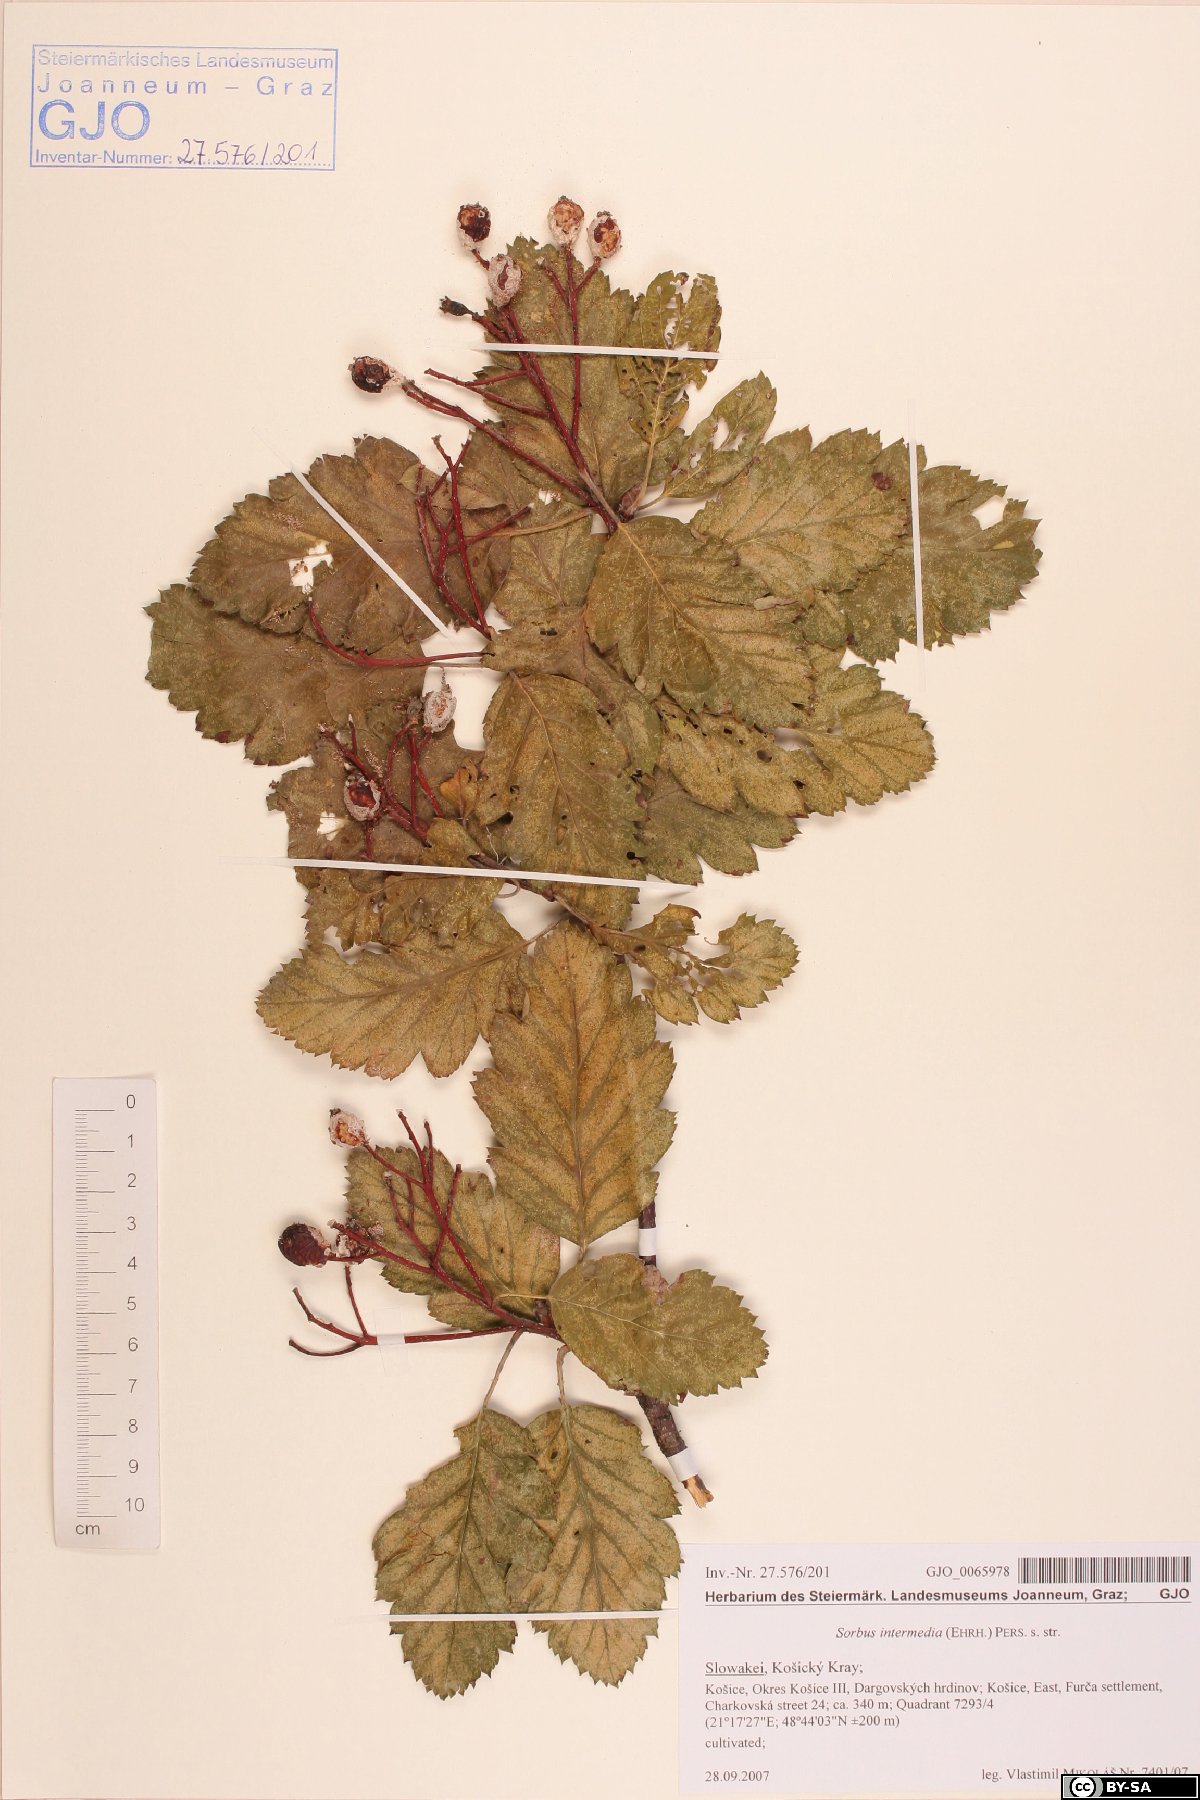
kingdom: Plantae
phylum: Tracheophyta
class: Magnoliopsida
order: Rosales
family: Rosaceae
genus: Scandosorbus
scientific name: Scandosorbus intermedia
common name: Swedish whitebeam
